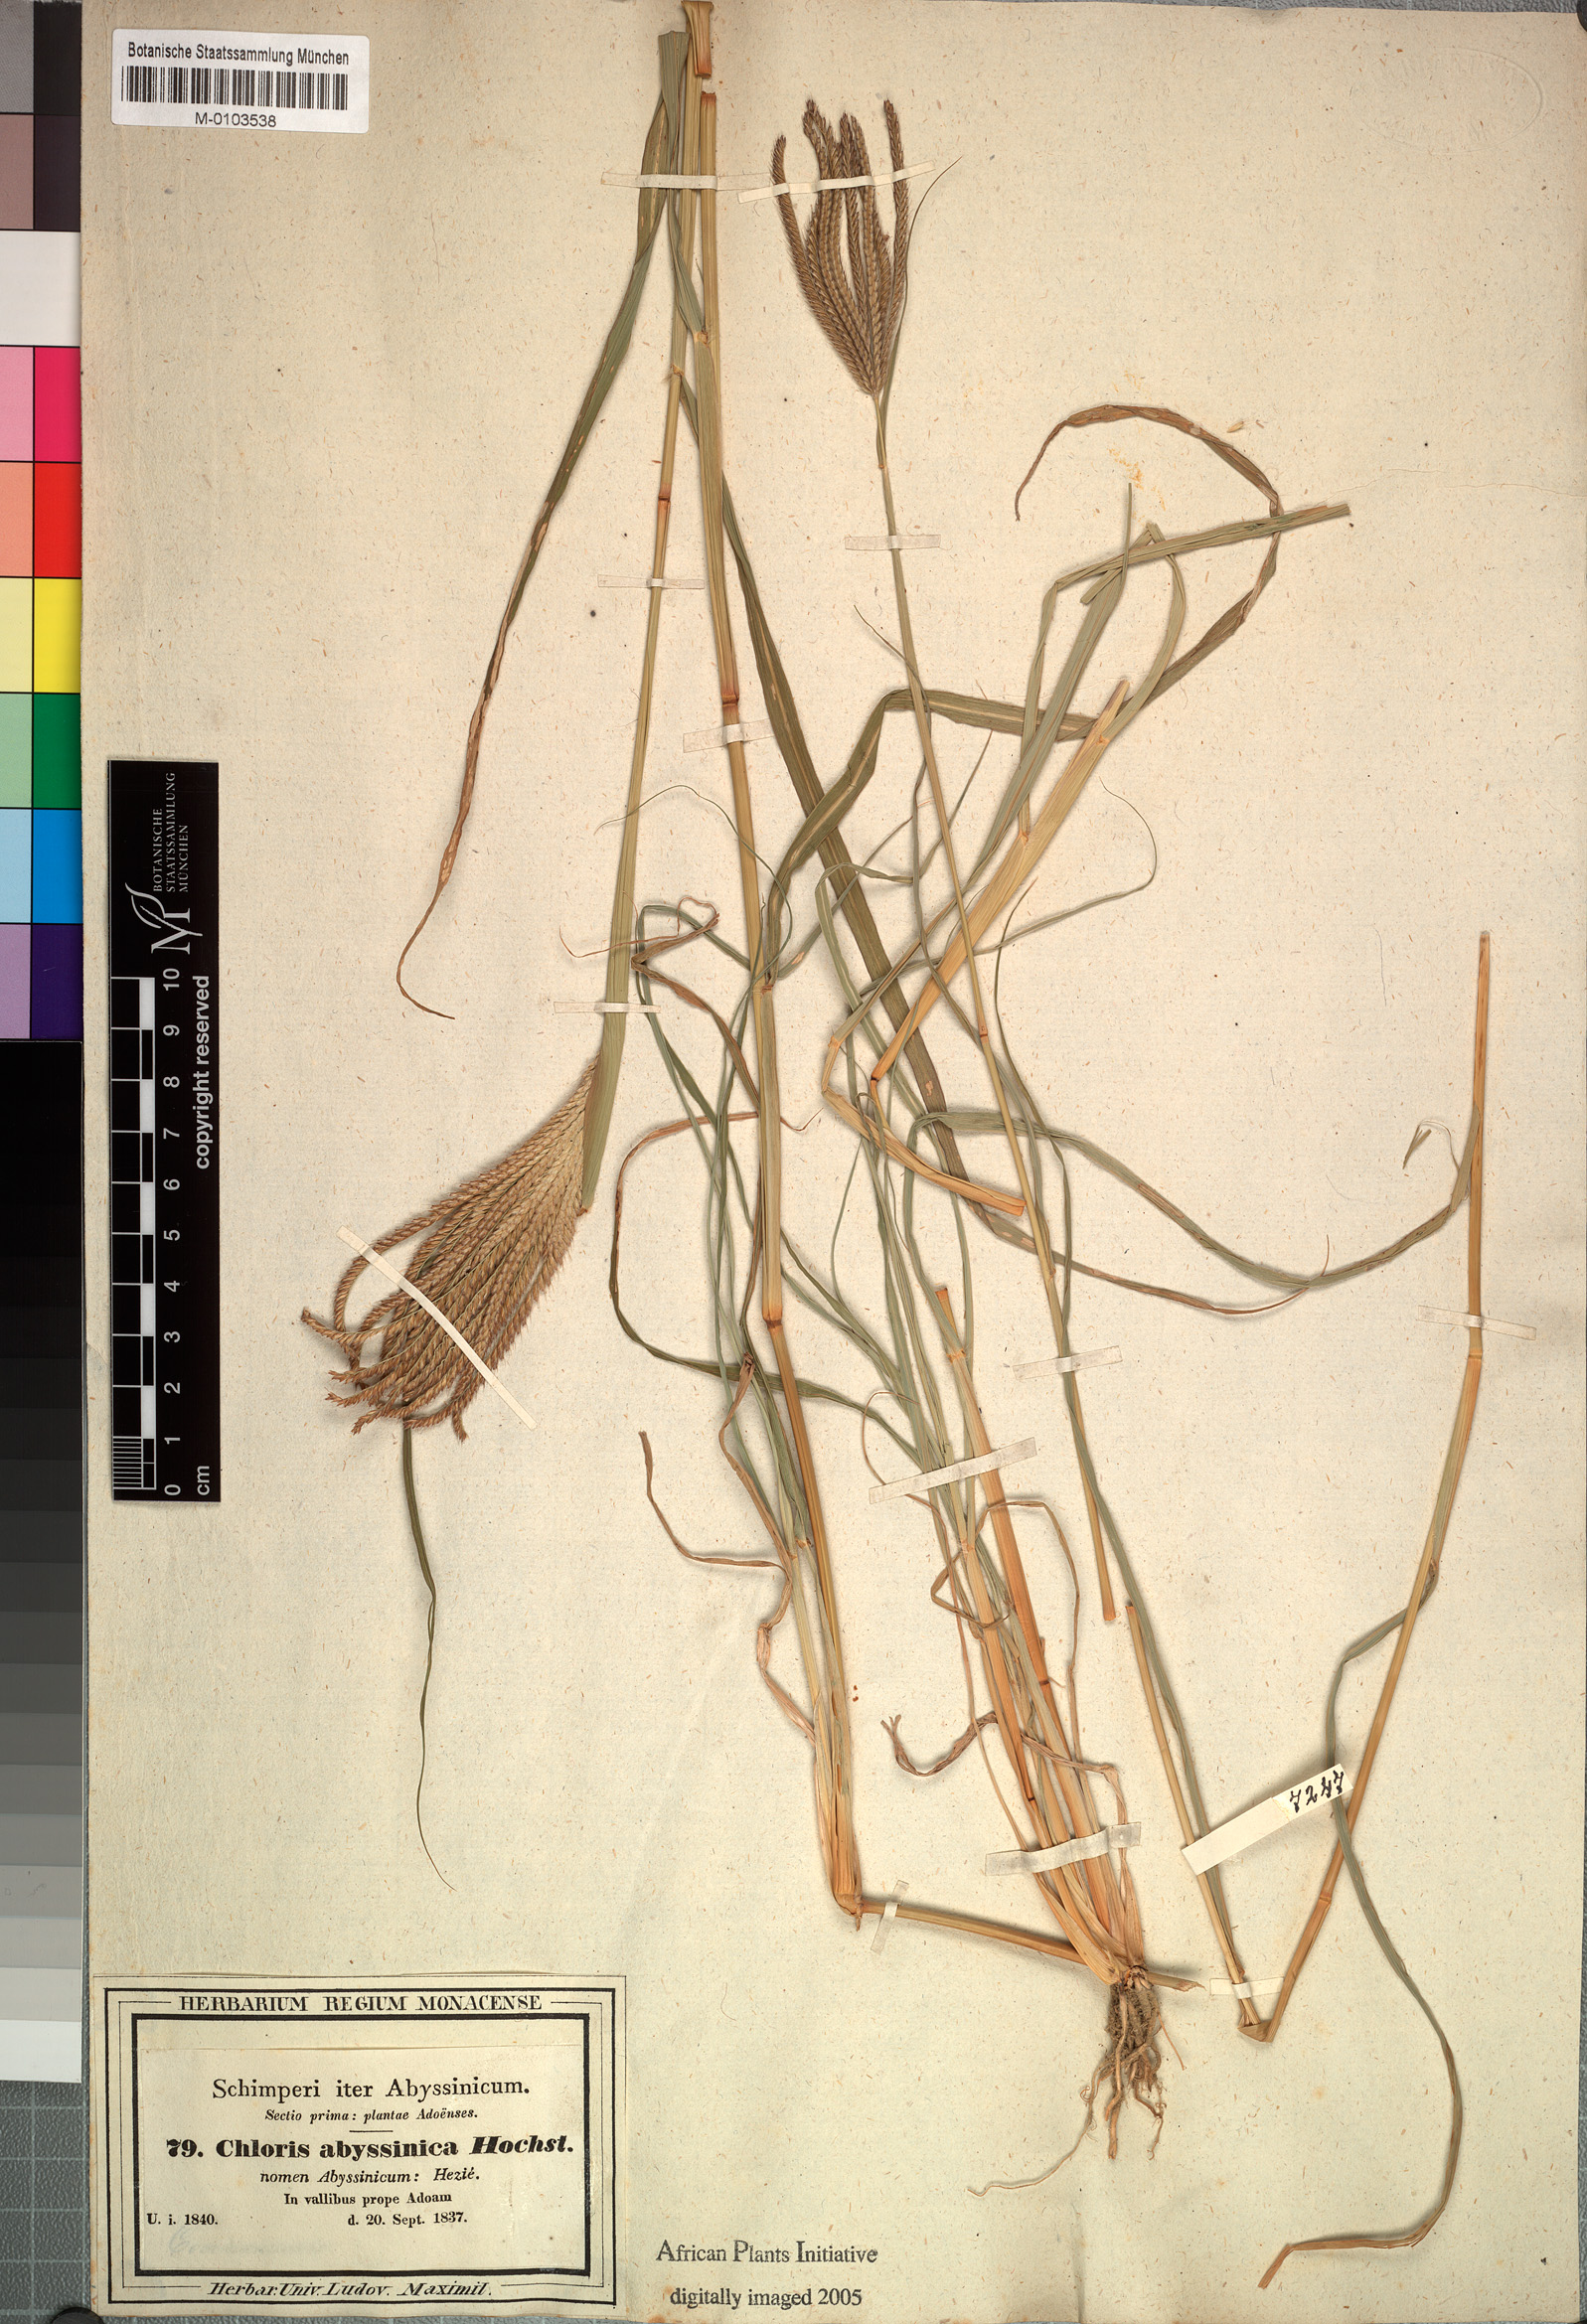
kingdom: Plantae
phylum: Tracheophyta
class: Liliopsida
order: Poales
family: Poaceae
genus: Chloris
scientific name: Chloris gayana
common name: Rhodes grass
